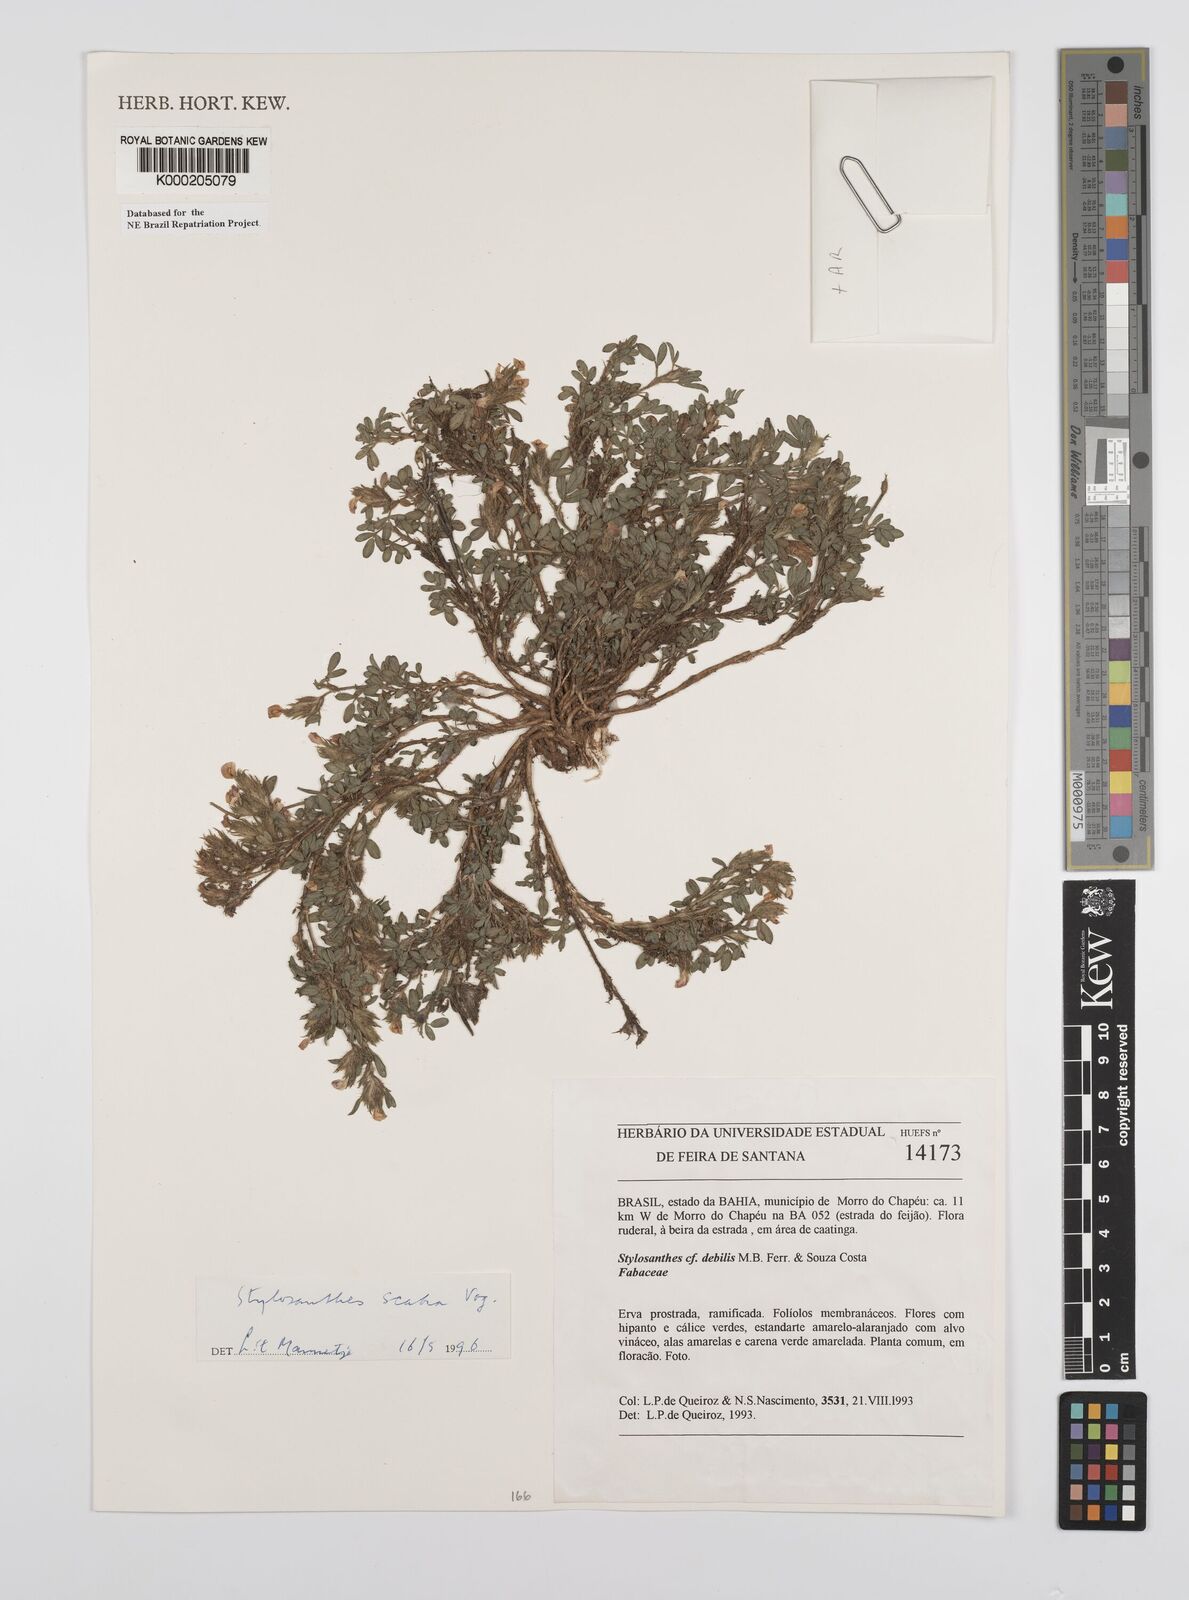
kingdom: Plantae
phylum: Tracheophyta
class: Magnoliopsida
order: Fabales
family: Fabaceae
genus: Stylosanthes
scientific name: Stylosanthes scabra
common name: Pencilflower
